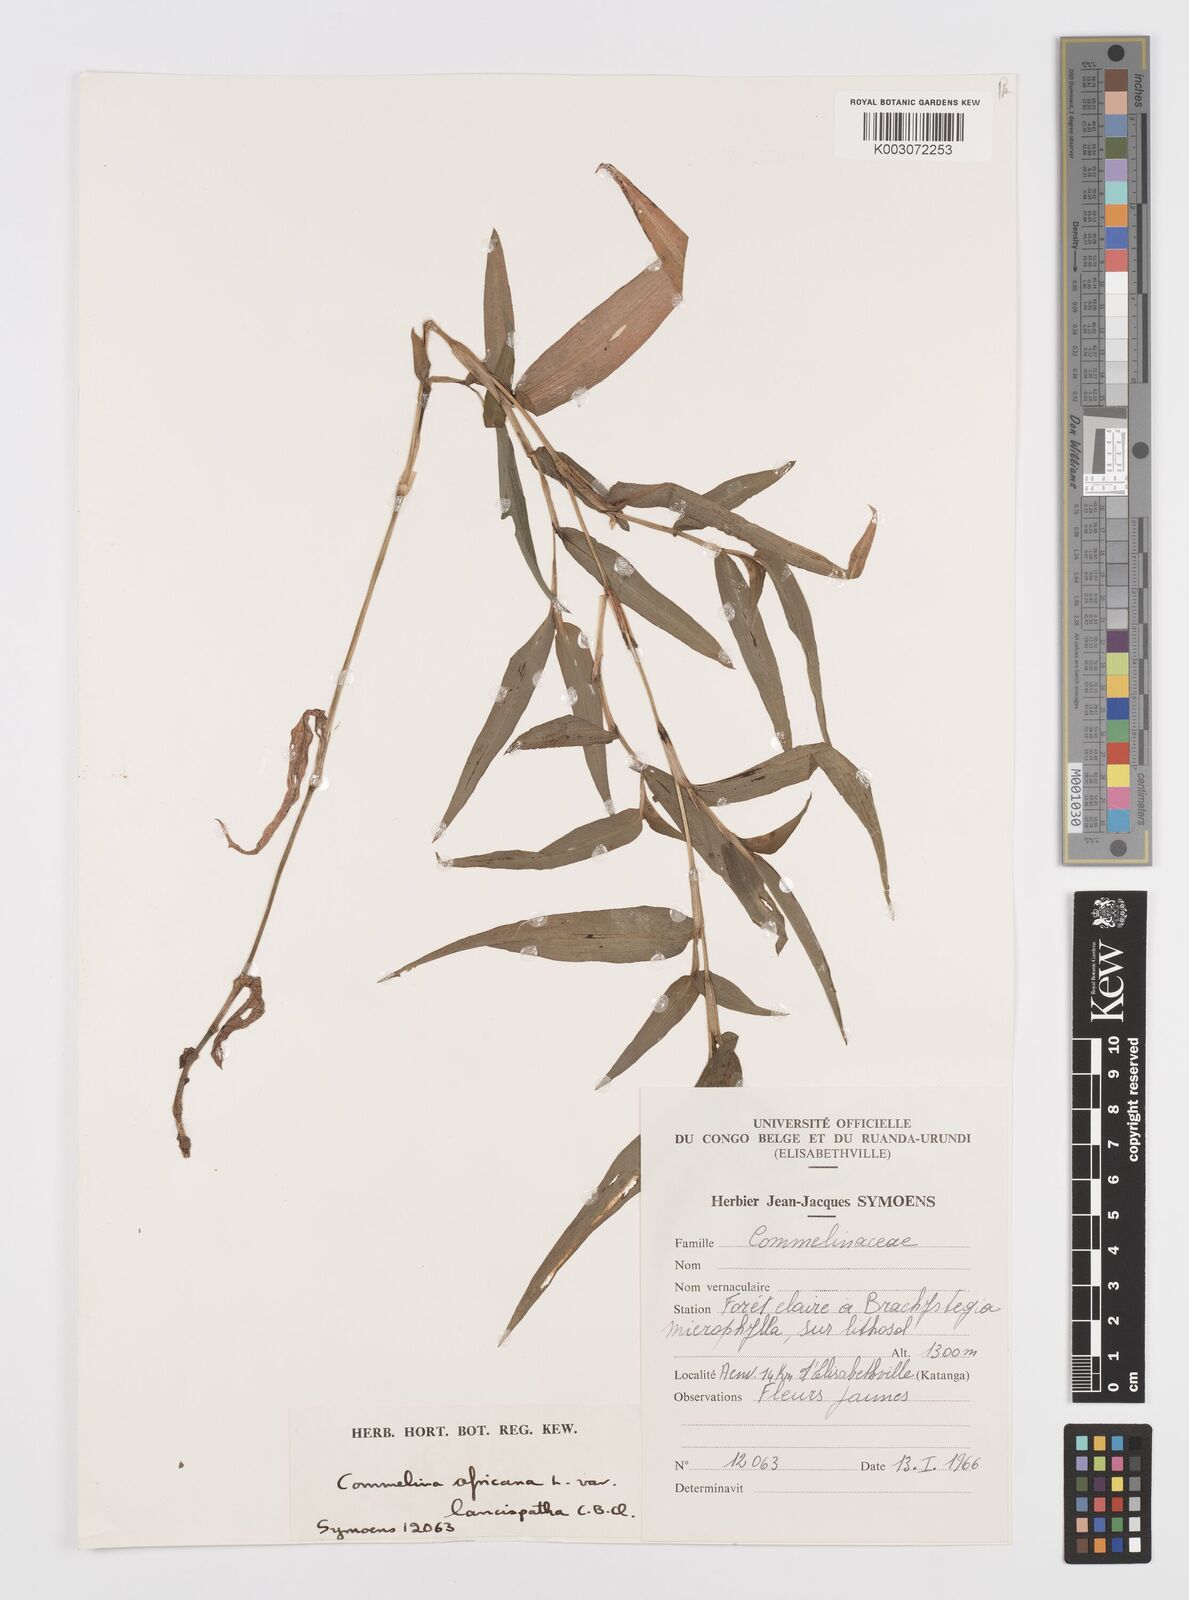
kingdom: Plantae
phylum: Tracheophyta
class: Liliopsida
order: Commelinales
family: Commelinaceae
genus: Commelina
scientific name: Commelina africana
